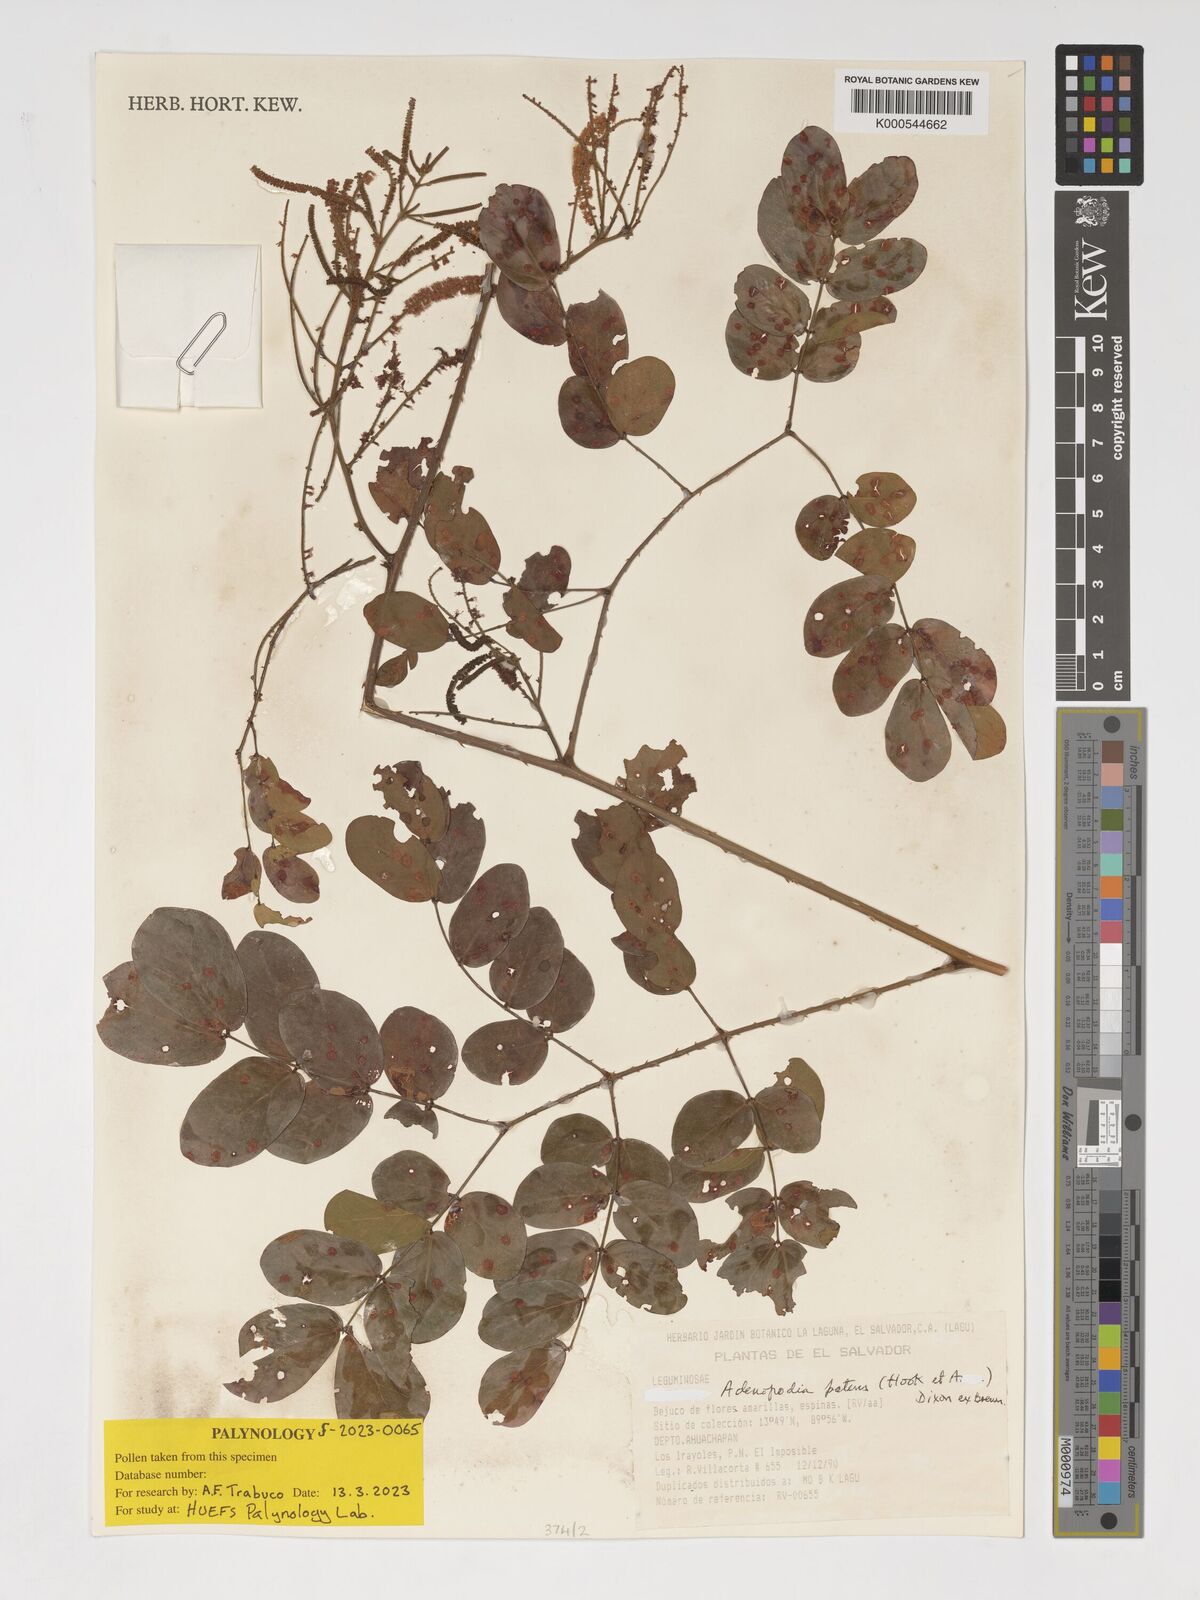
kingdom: Plantae
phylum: Tracheophyta
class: Magnoliopsida
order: Fabales
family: Fabaceae
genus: Adenopodia
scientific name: Adenopodia patens
